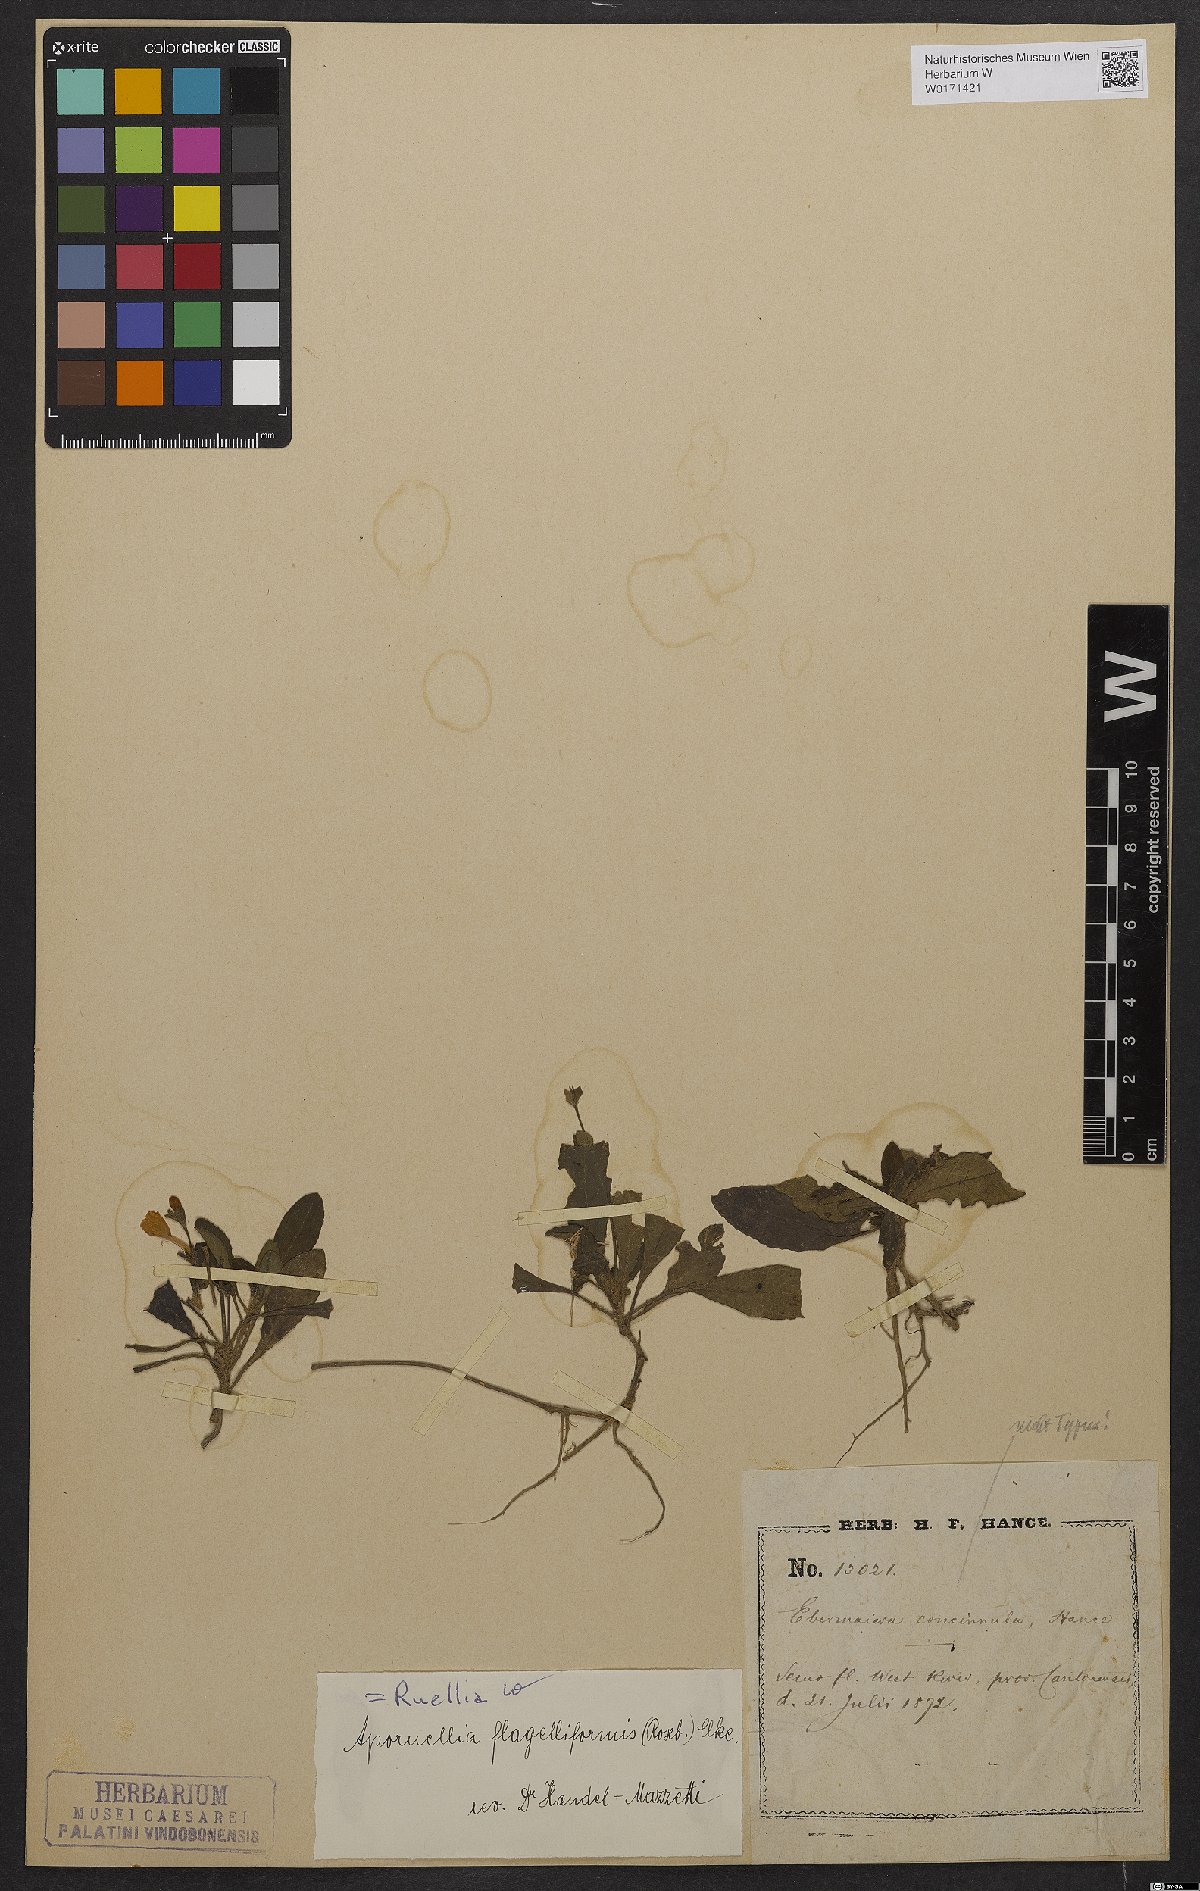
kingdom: Plantae
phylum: Tracheophyta
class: Magnoliopsida
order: Lamiales
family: Acanthaceae
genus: Pararuellia
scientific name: Pararuellia flagelliformis
